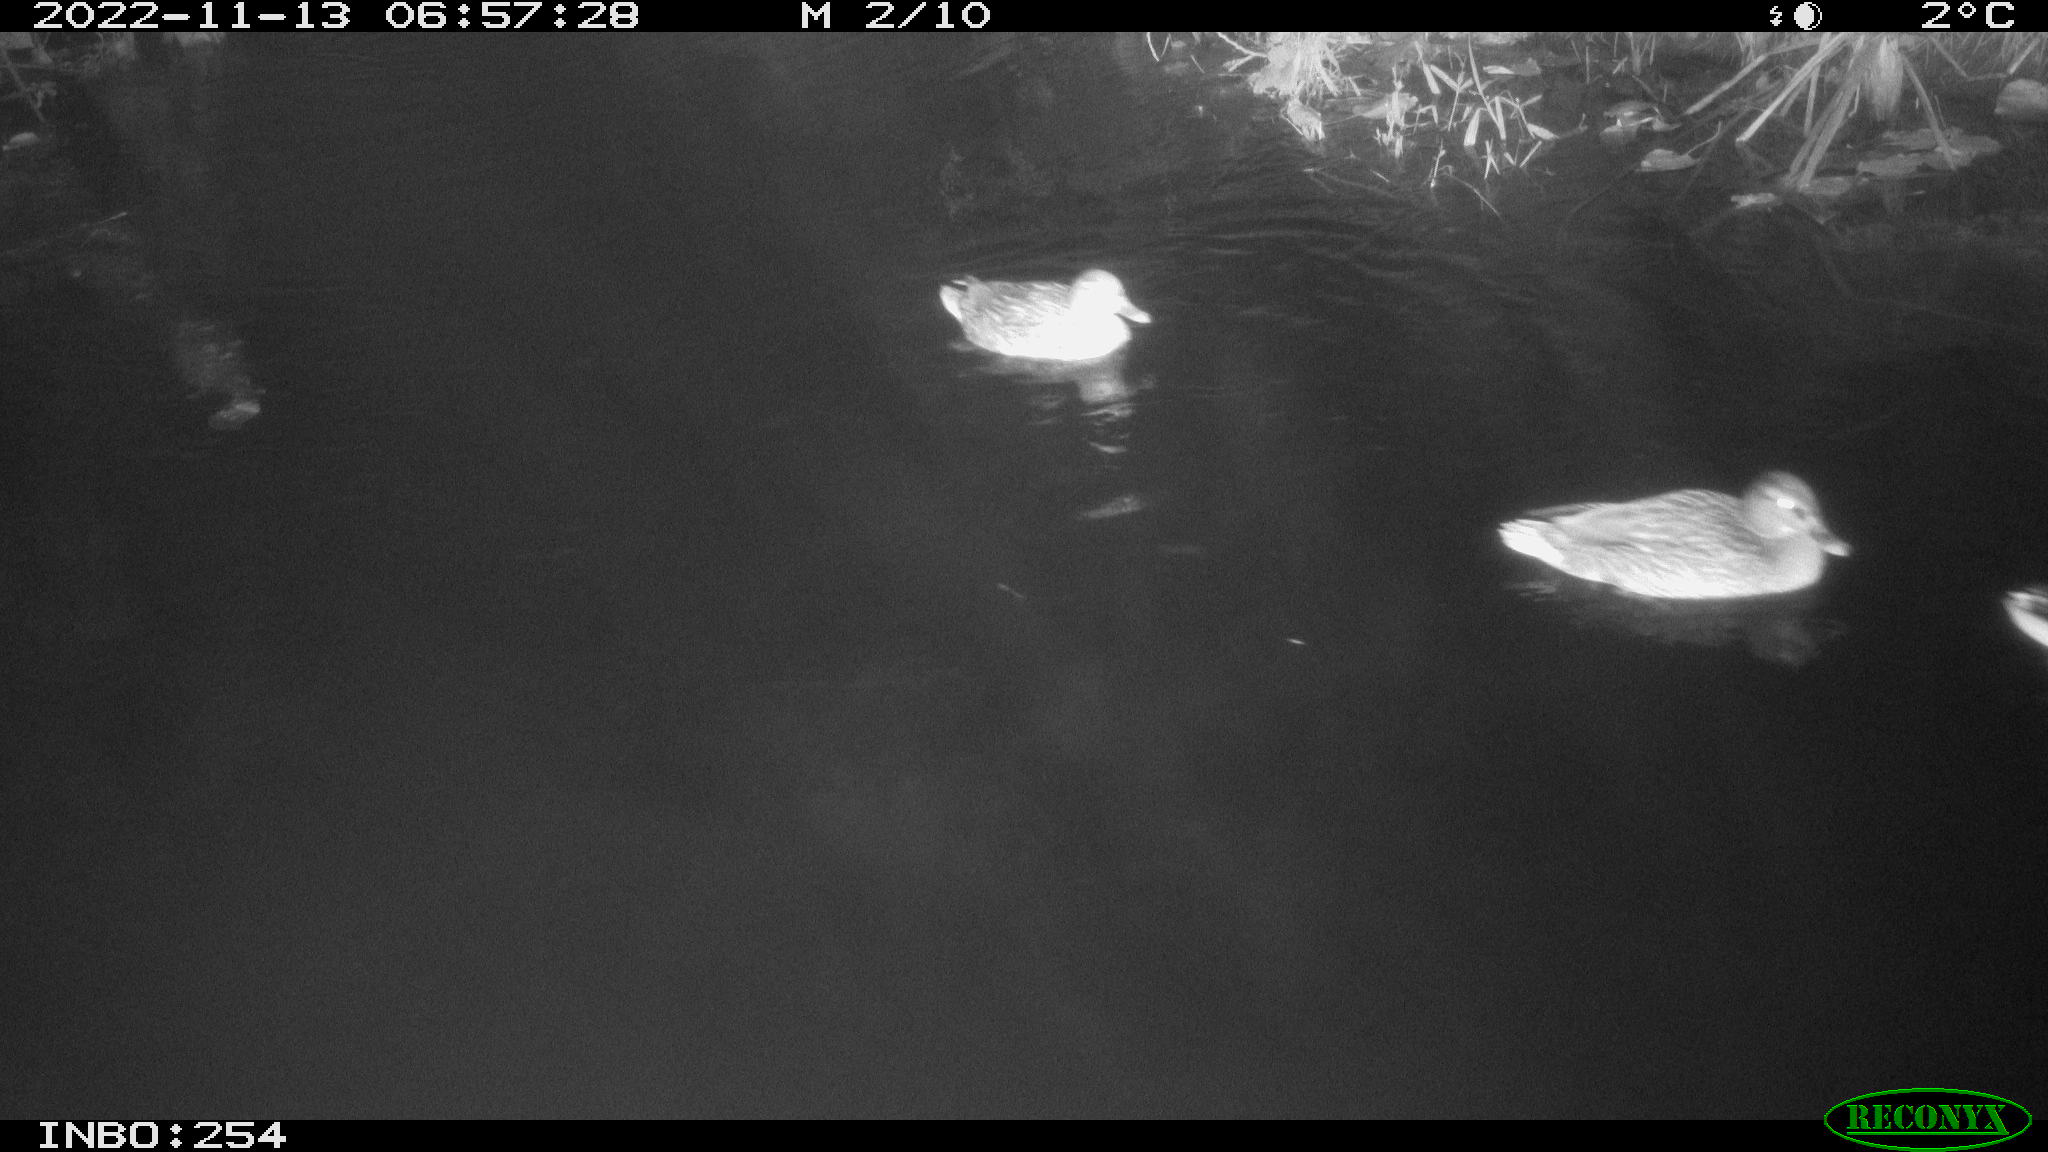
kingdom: Animalia
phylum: Chordata
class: Aves
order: Anseriformes
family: Anatidae
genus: Anas
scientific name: Anas
